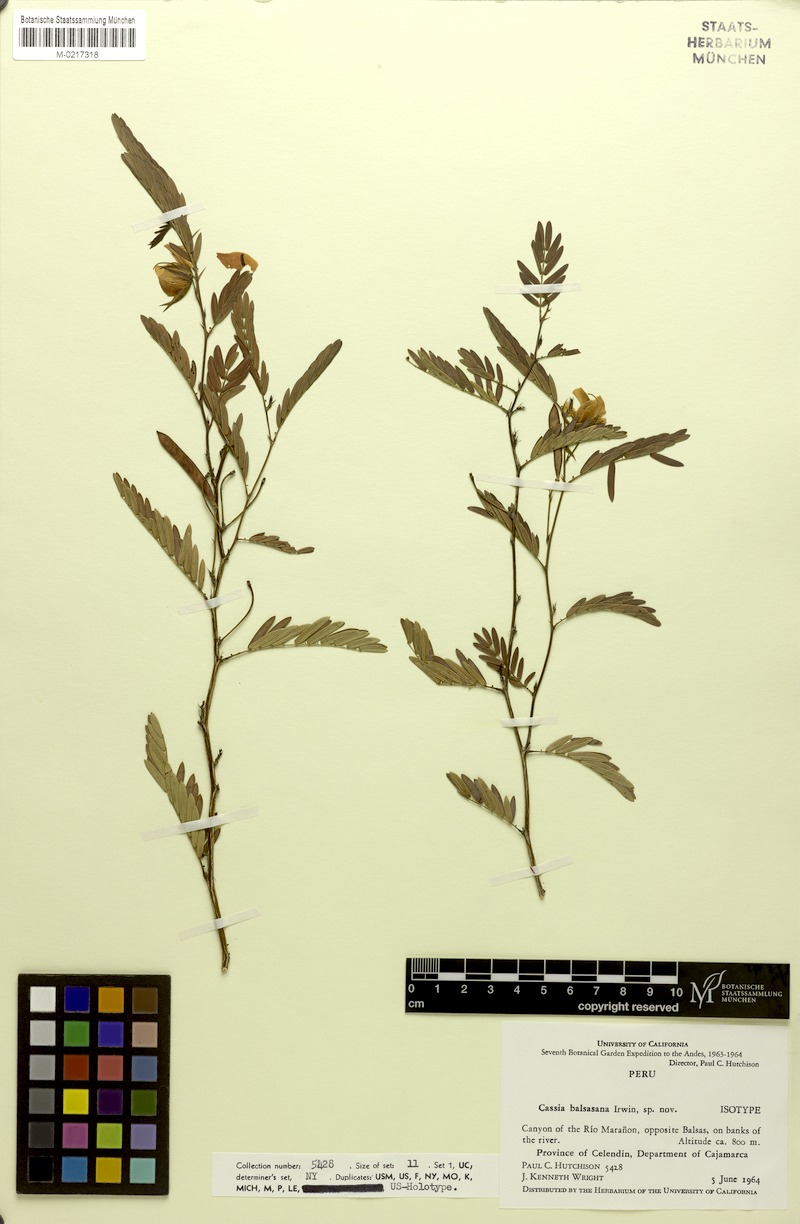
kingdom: Plantae
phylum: Tracheophyta
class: Magnoliopsida
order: Fabales
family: Fabaceae
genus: Chamaecrista
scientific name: Chamaecrista glandulosa
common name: Wild peas
